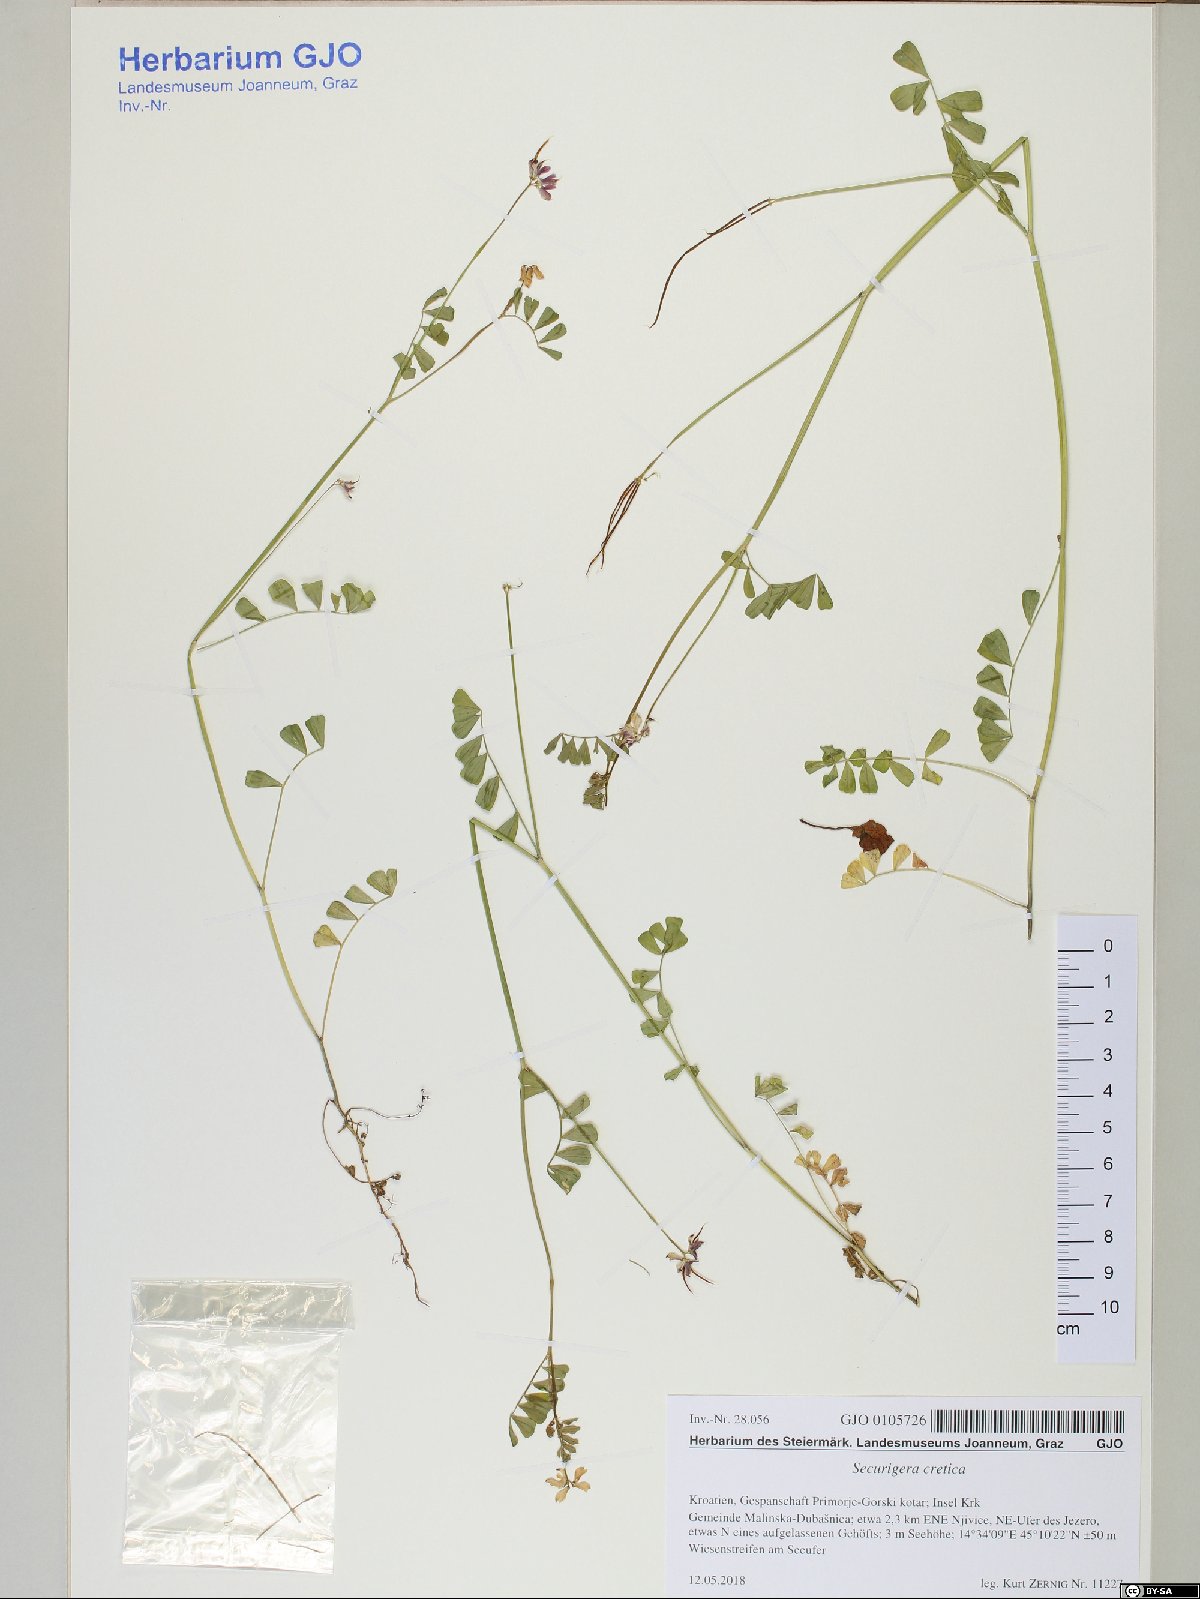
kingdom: Plantae
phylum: Tracheophyta
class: Magnoliopsida
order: Fabales
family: Fabaceae
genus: Coronilla
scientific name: Coronilla cretica
